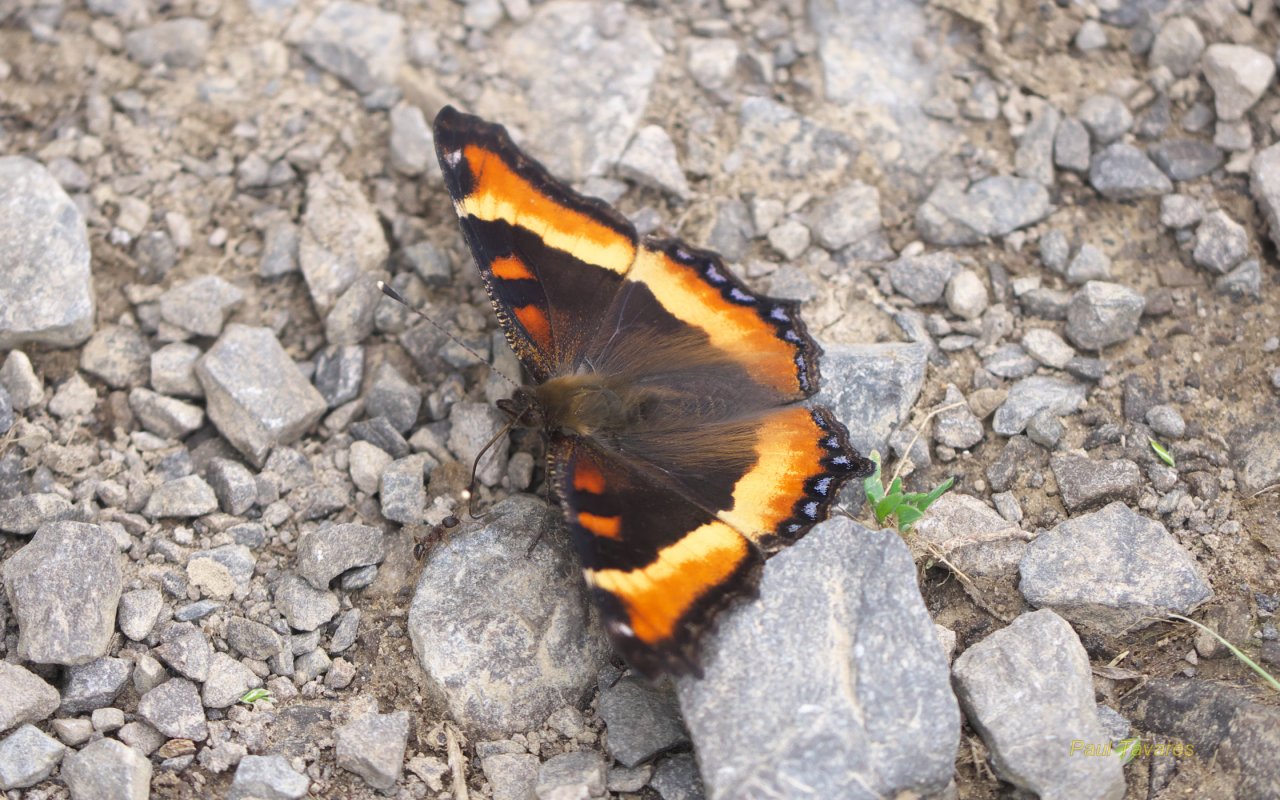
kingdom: Animalia
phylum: Arthropoda
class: Insecta
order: Lepidoptera
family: Nymphalidae
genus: Aglais
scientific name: Aglais milberti
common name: Milbert's Tortoiseshell
